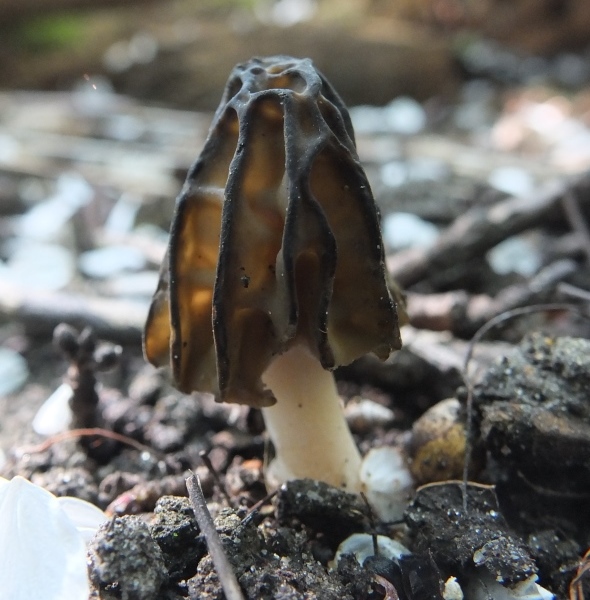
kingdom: Fungi
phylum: Ascomycota
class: Pezizomycetes
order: Pezizales
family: Morchellaceae
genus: Morchella
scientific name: Morchella semilibera
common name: hætte-morkel
